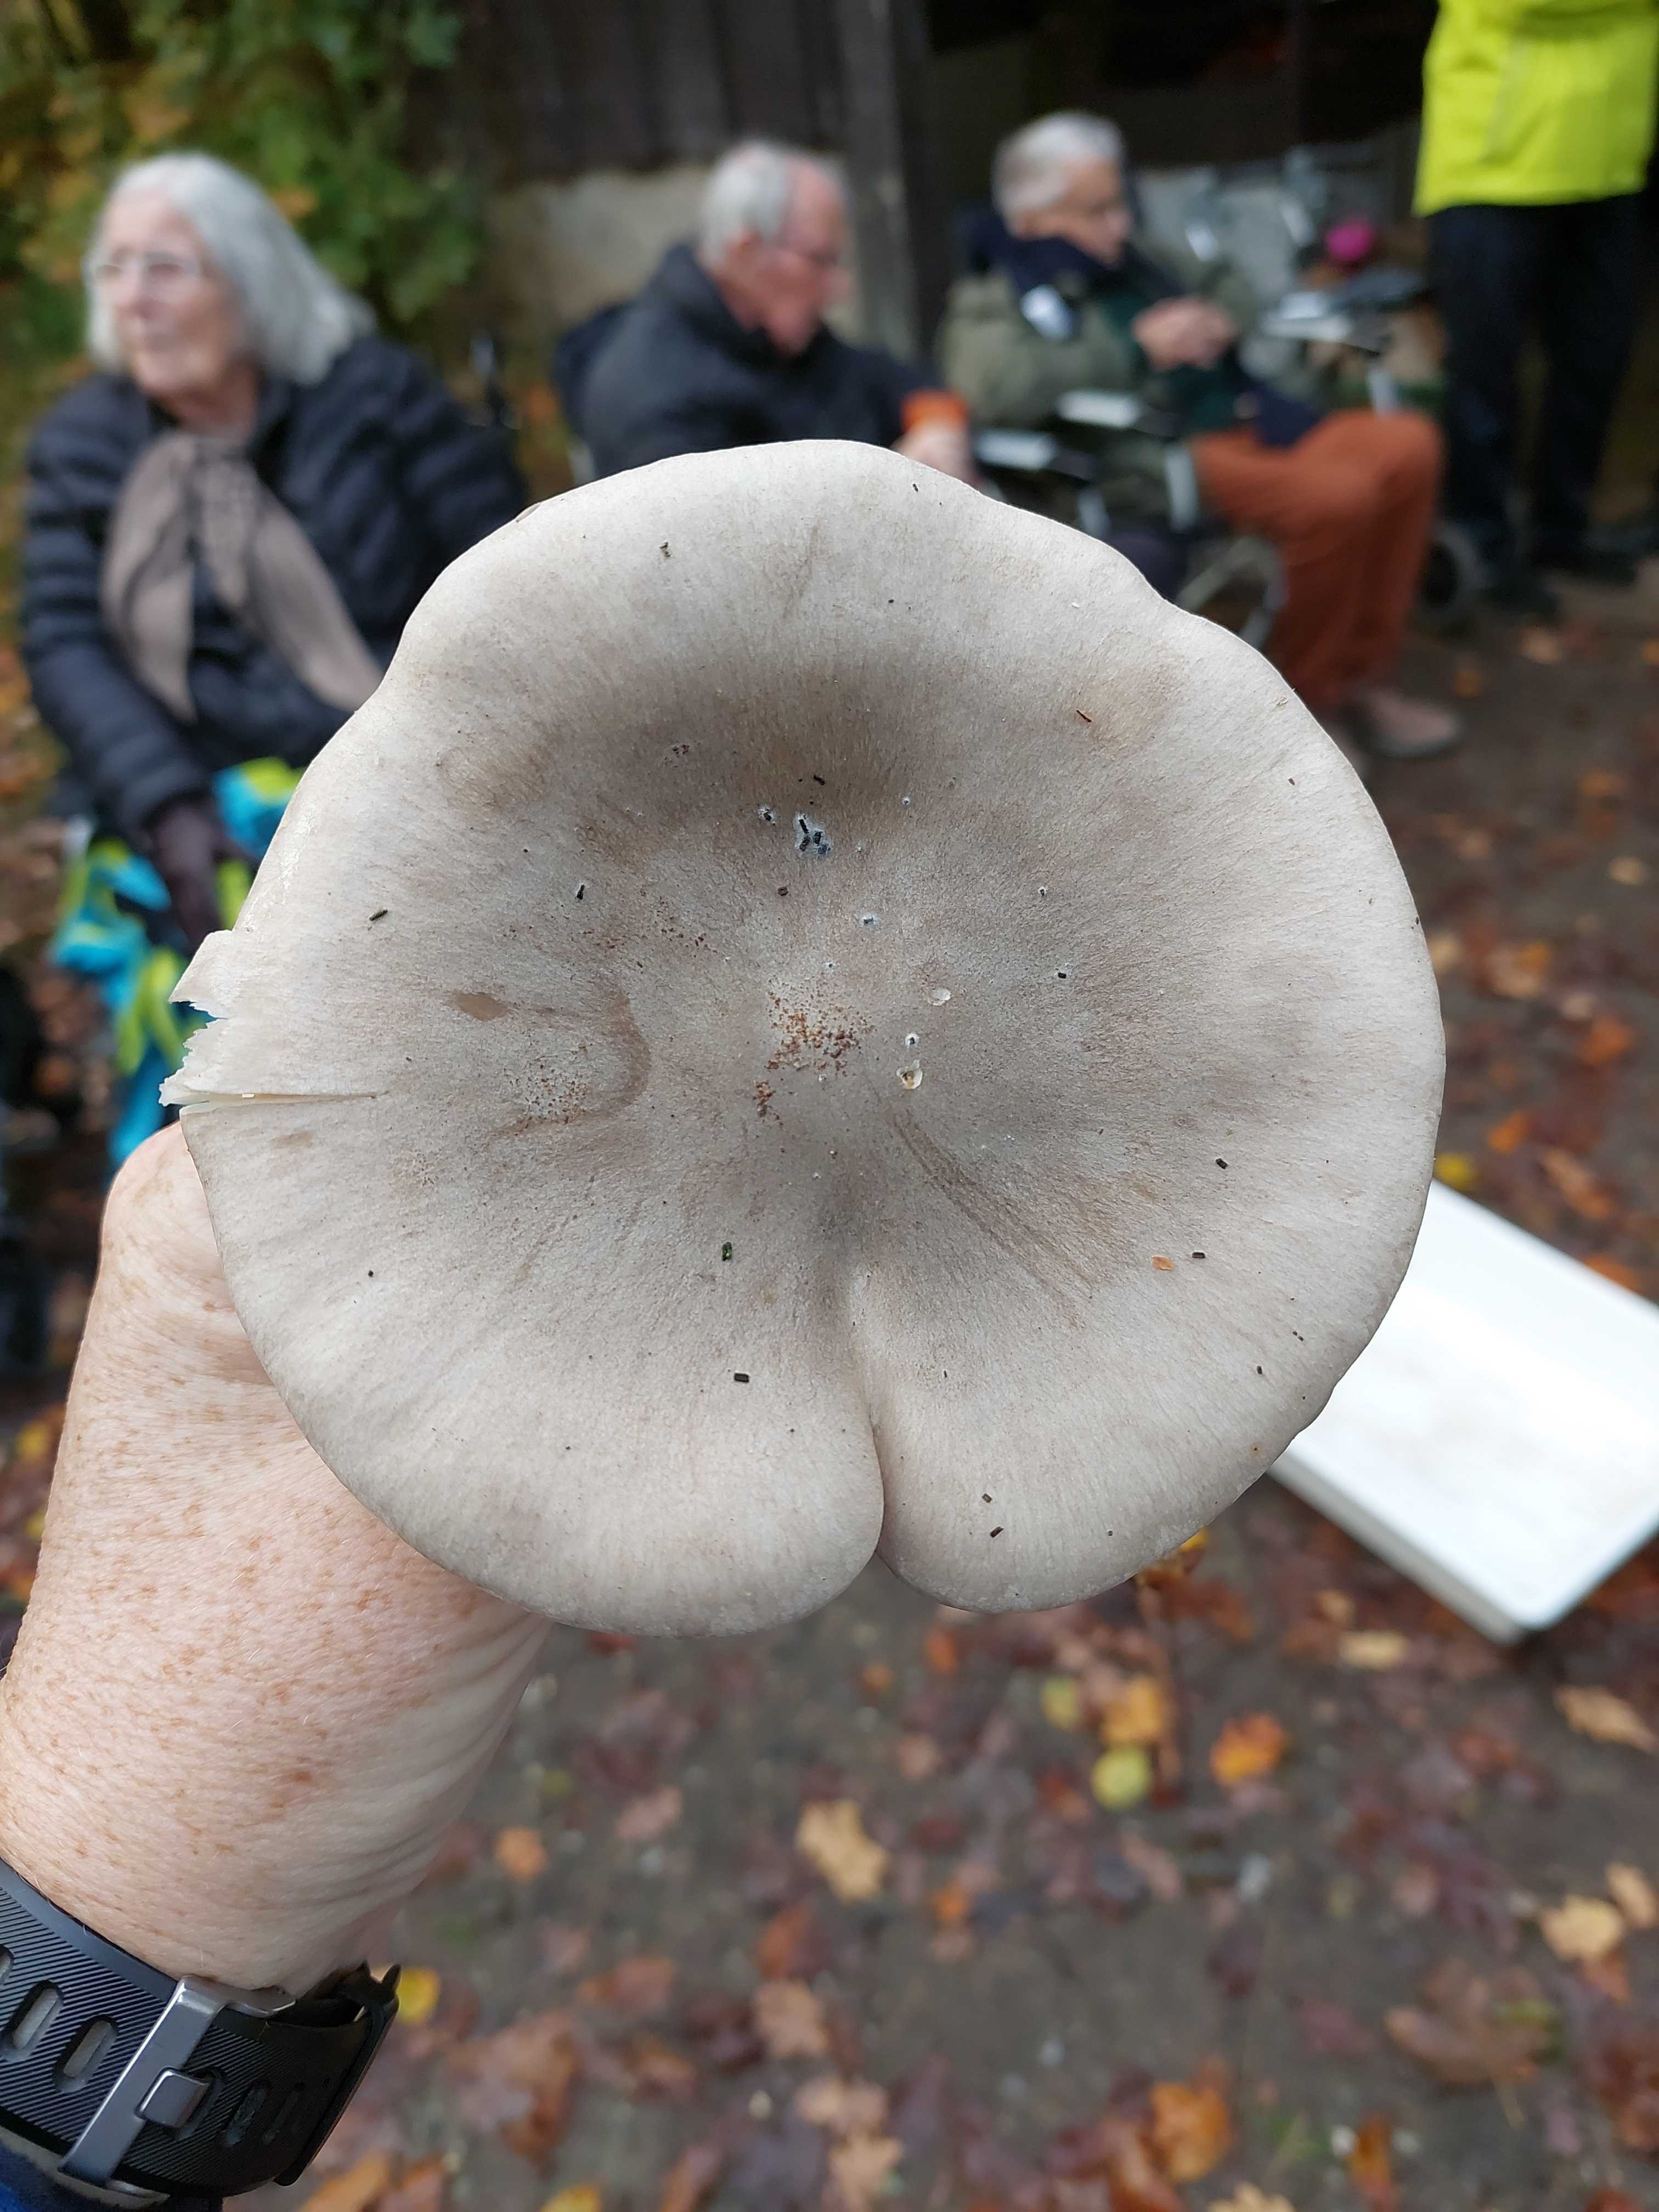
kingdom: Fungi
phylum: Basidiomycota
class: Agaricomycetes
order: Agaricales
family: Tricholomataceae
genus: Clitocybe
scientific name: Clitocybe nebularis
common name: tåge-tragthat
